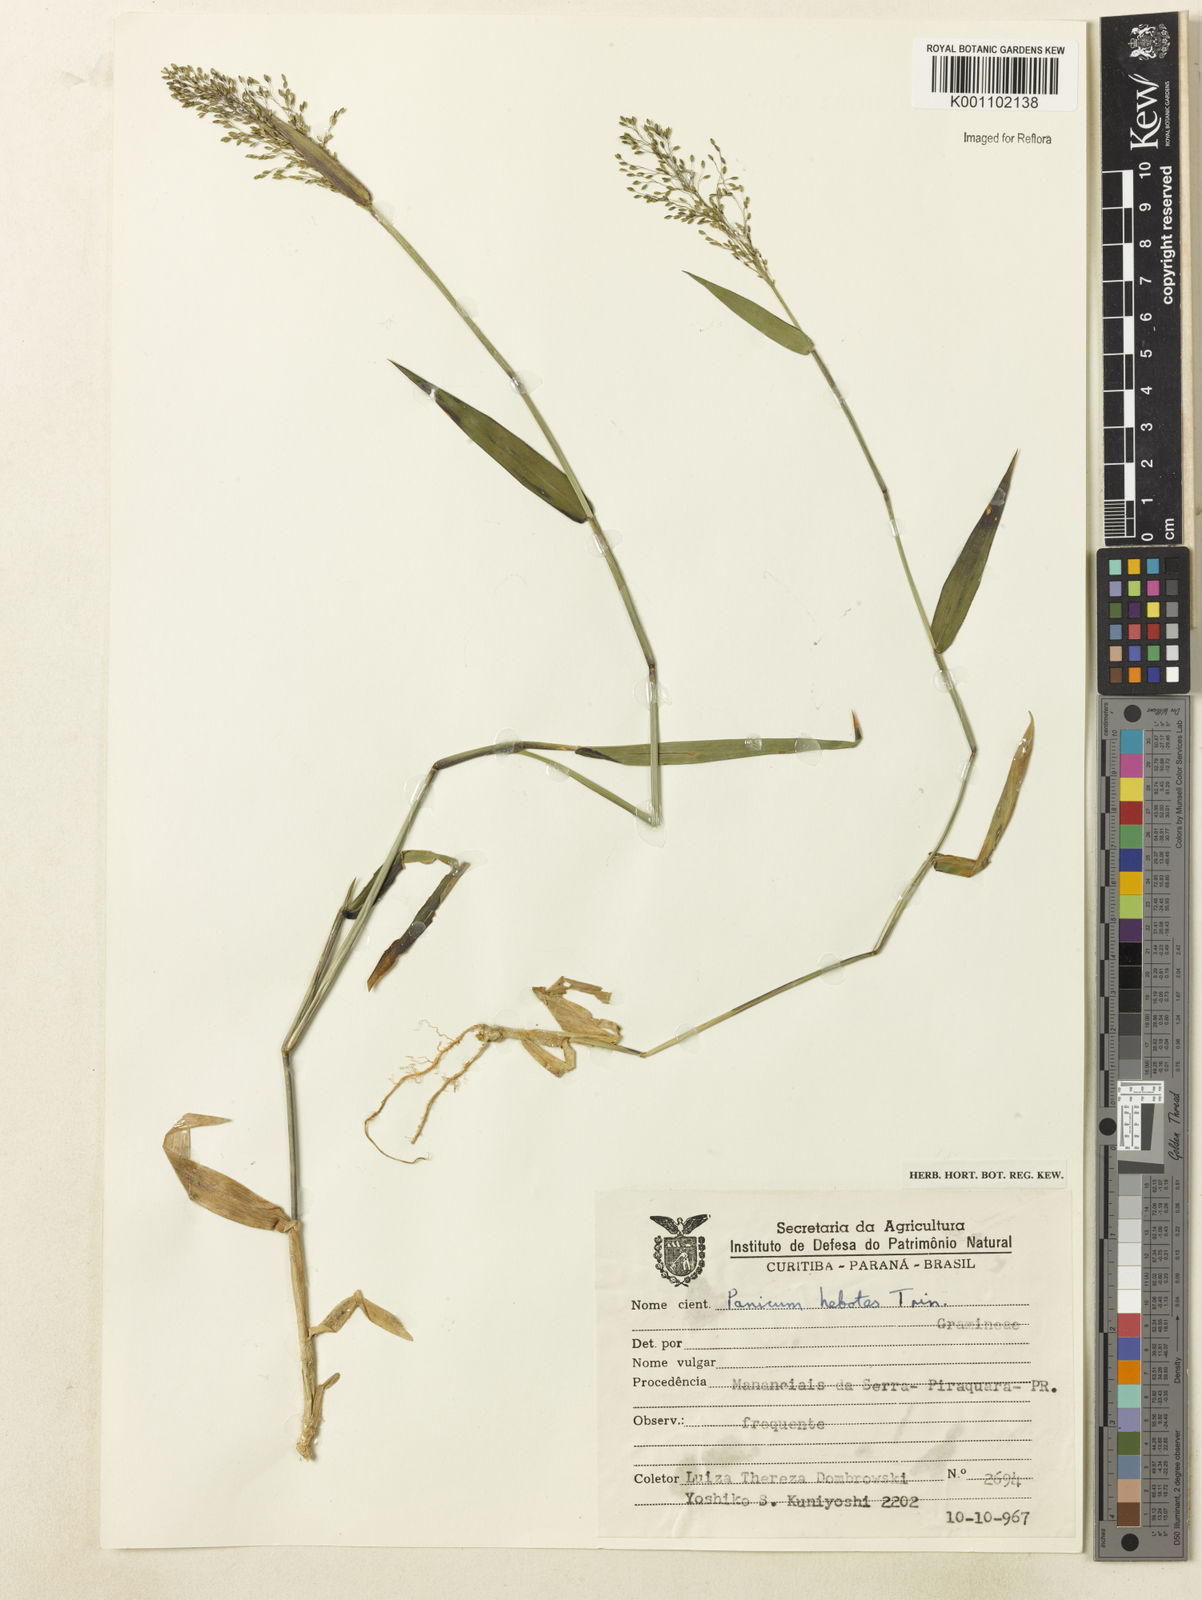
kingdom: Plantae
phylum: Tracheophyta
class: Liliopsida
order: Poales
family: Poaceae
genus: Dichanthelium
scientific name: Dichanthelium stigmosum
